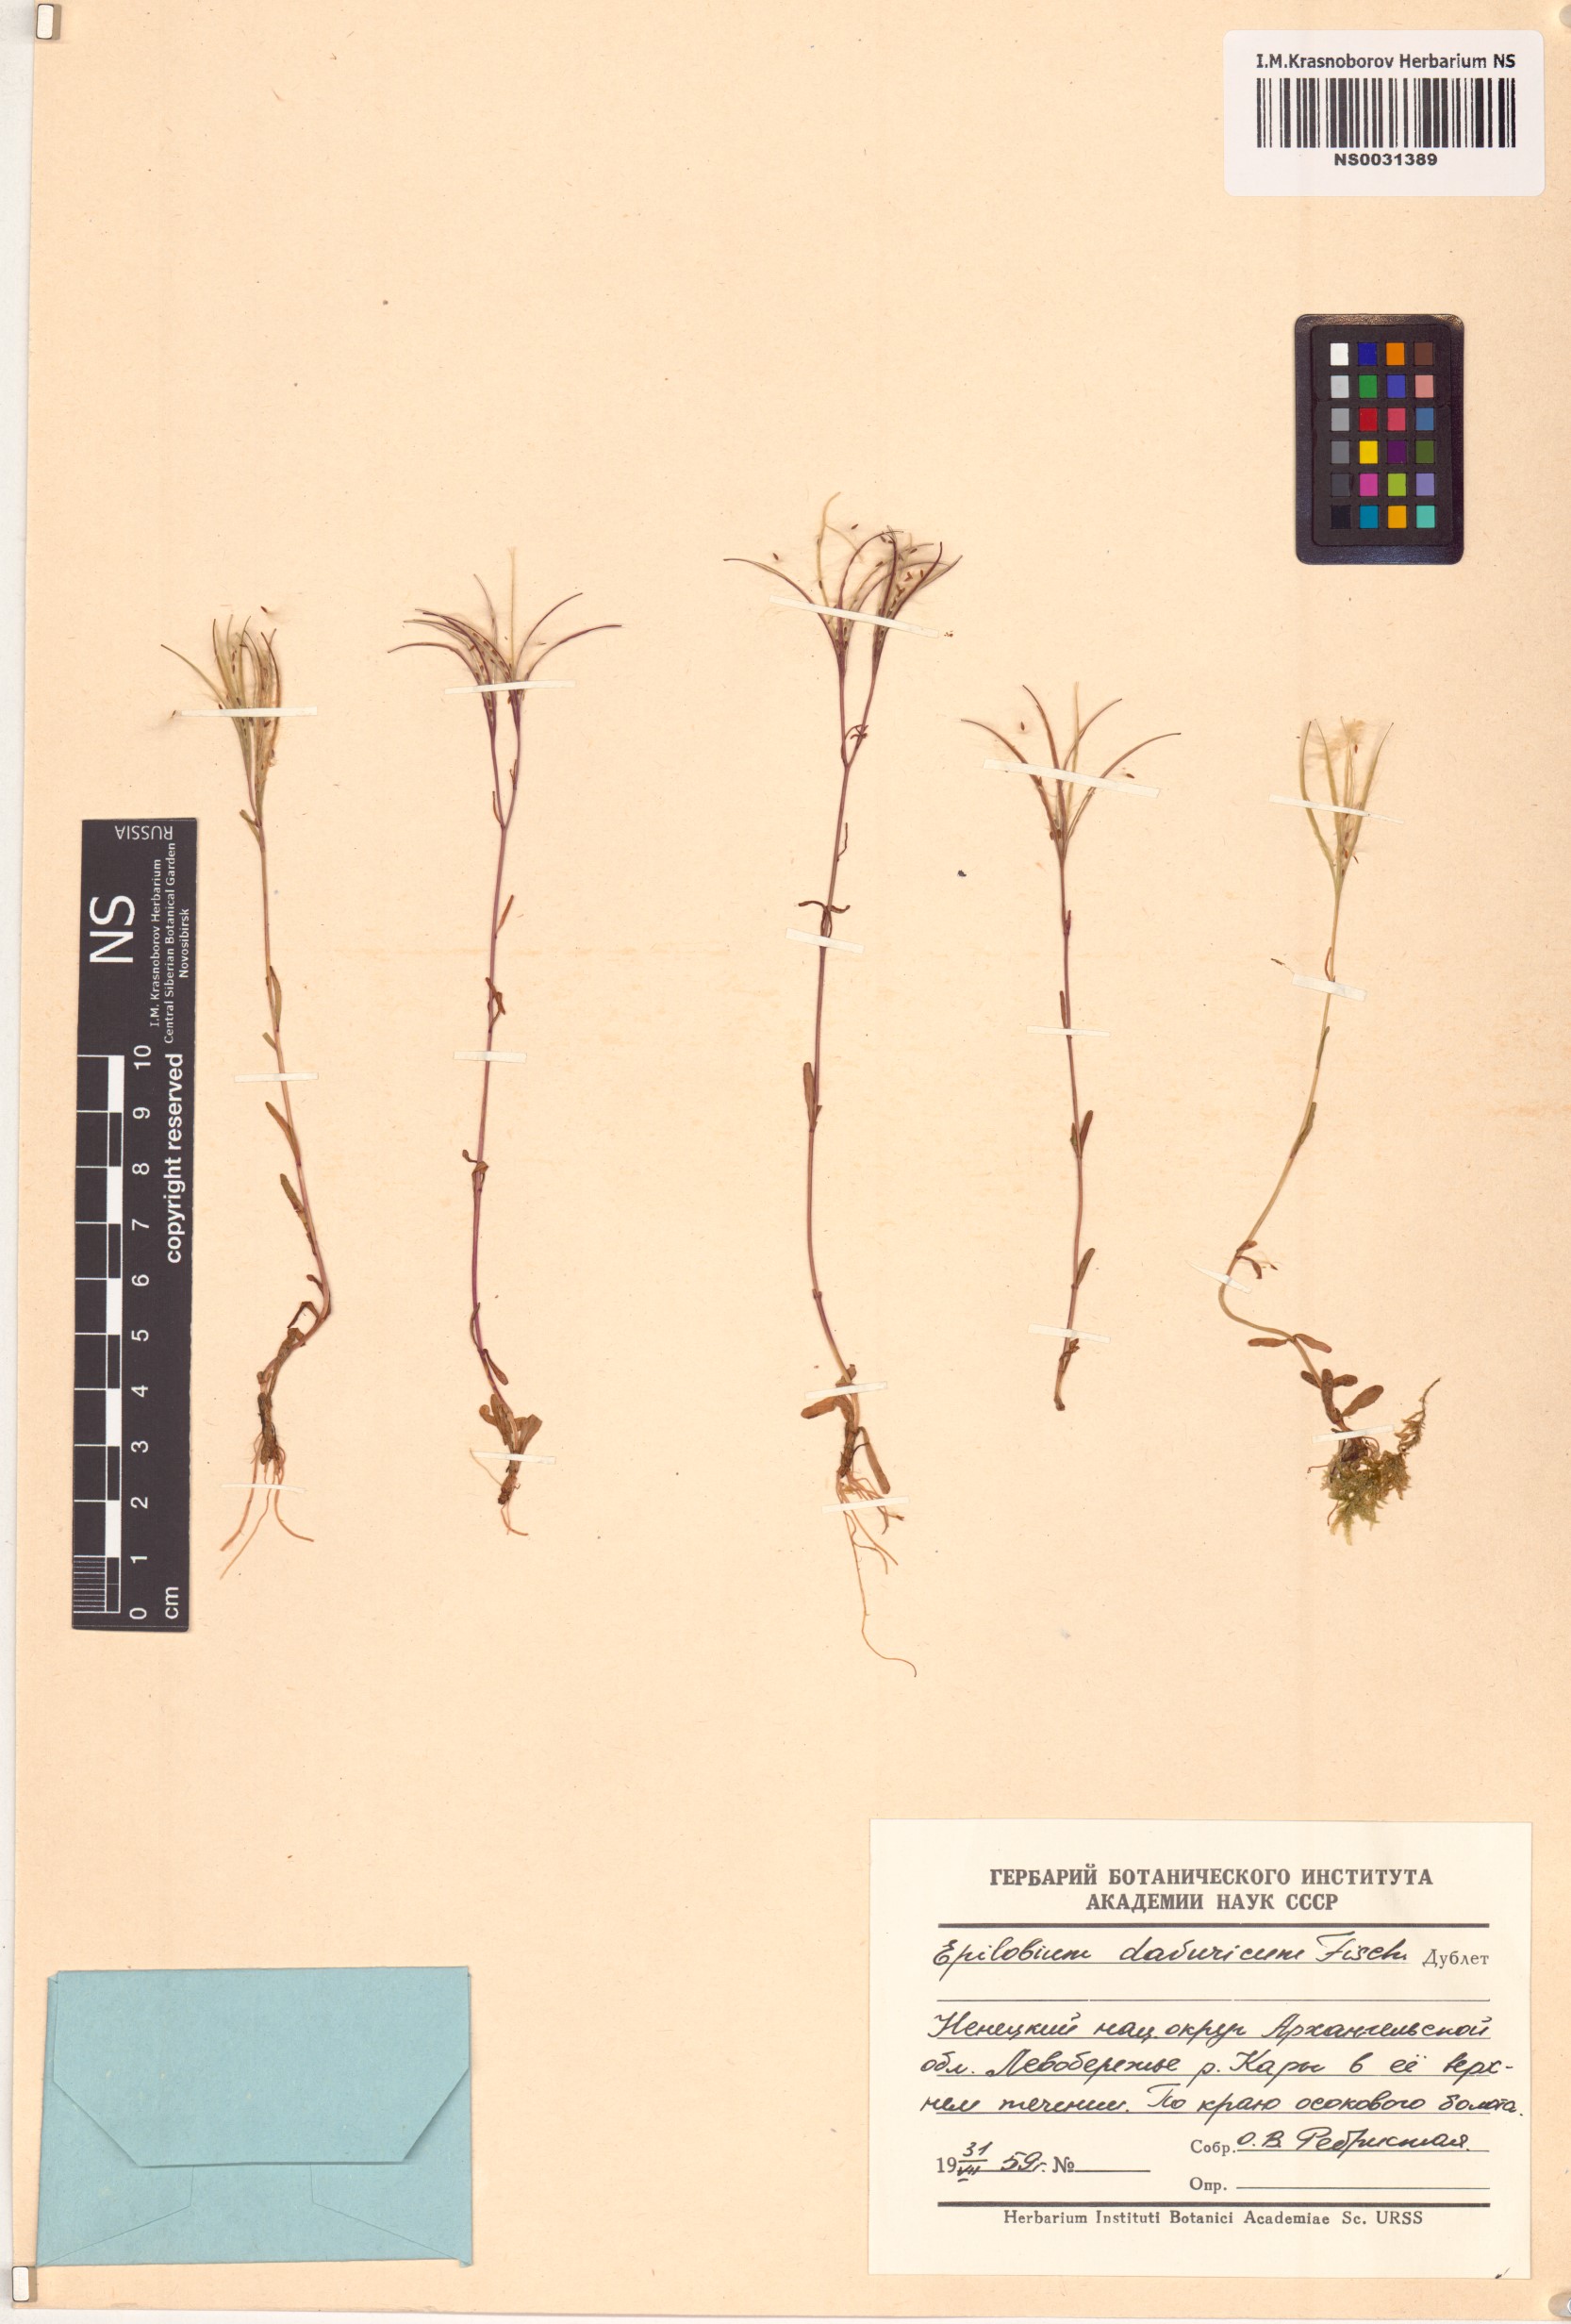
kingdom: Plantae
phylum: Tracheophyta
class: Magnoliopsida
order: Myrtales
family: Onagraceae
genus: Epilobium
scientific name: Epilobium davuricum
